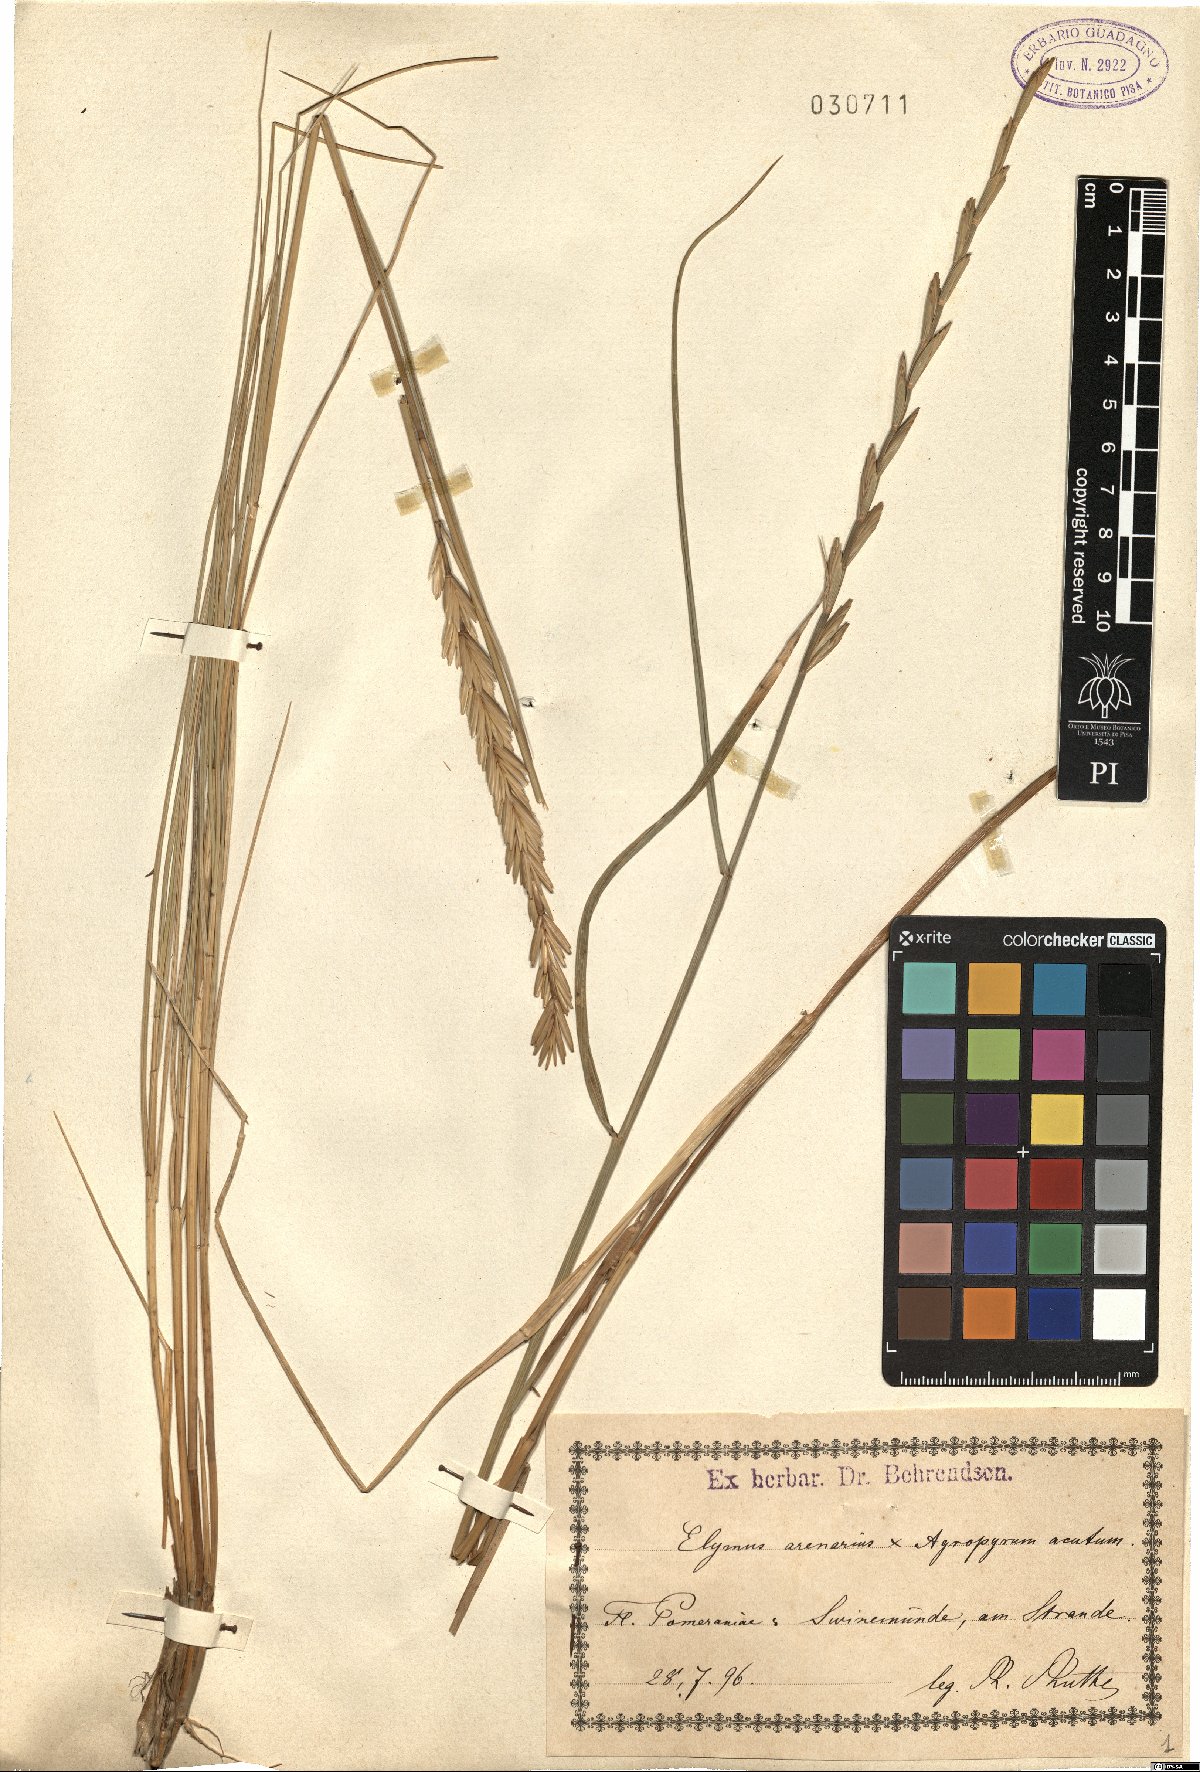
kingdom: Plantae
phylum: Tracheophyta
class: Liliopsida
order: Poales
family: Poaceae
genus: Leymus
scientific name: Leymus arenarius
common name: Lyme-grass
